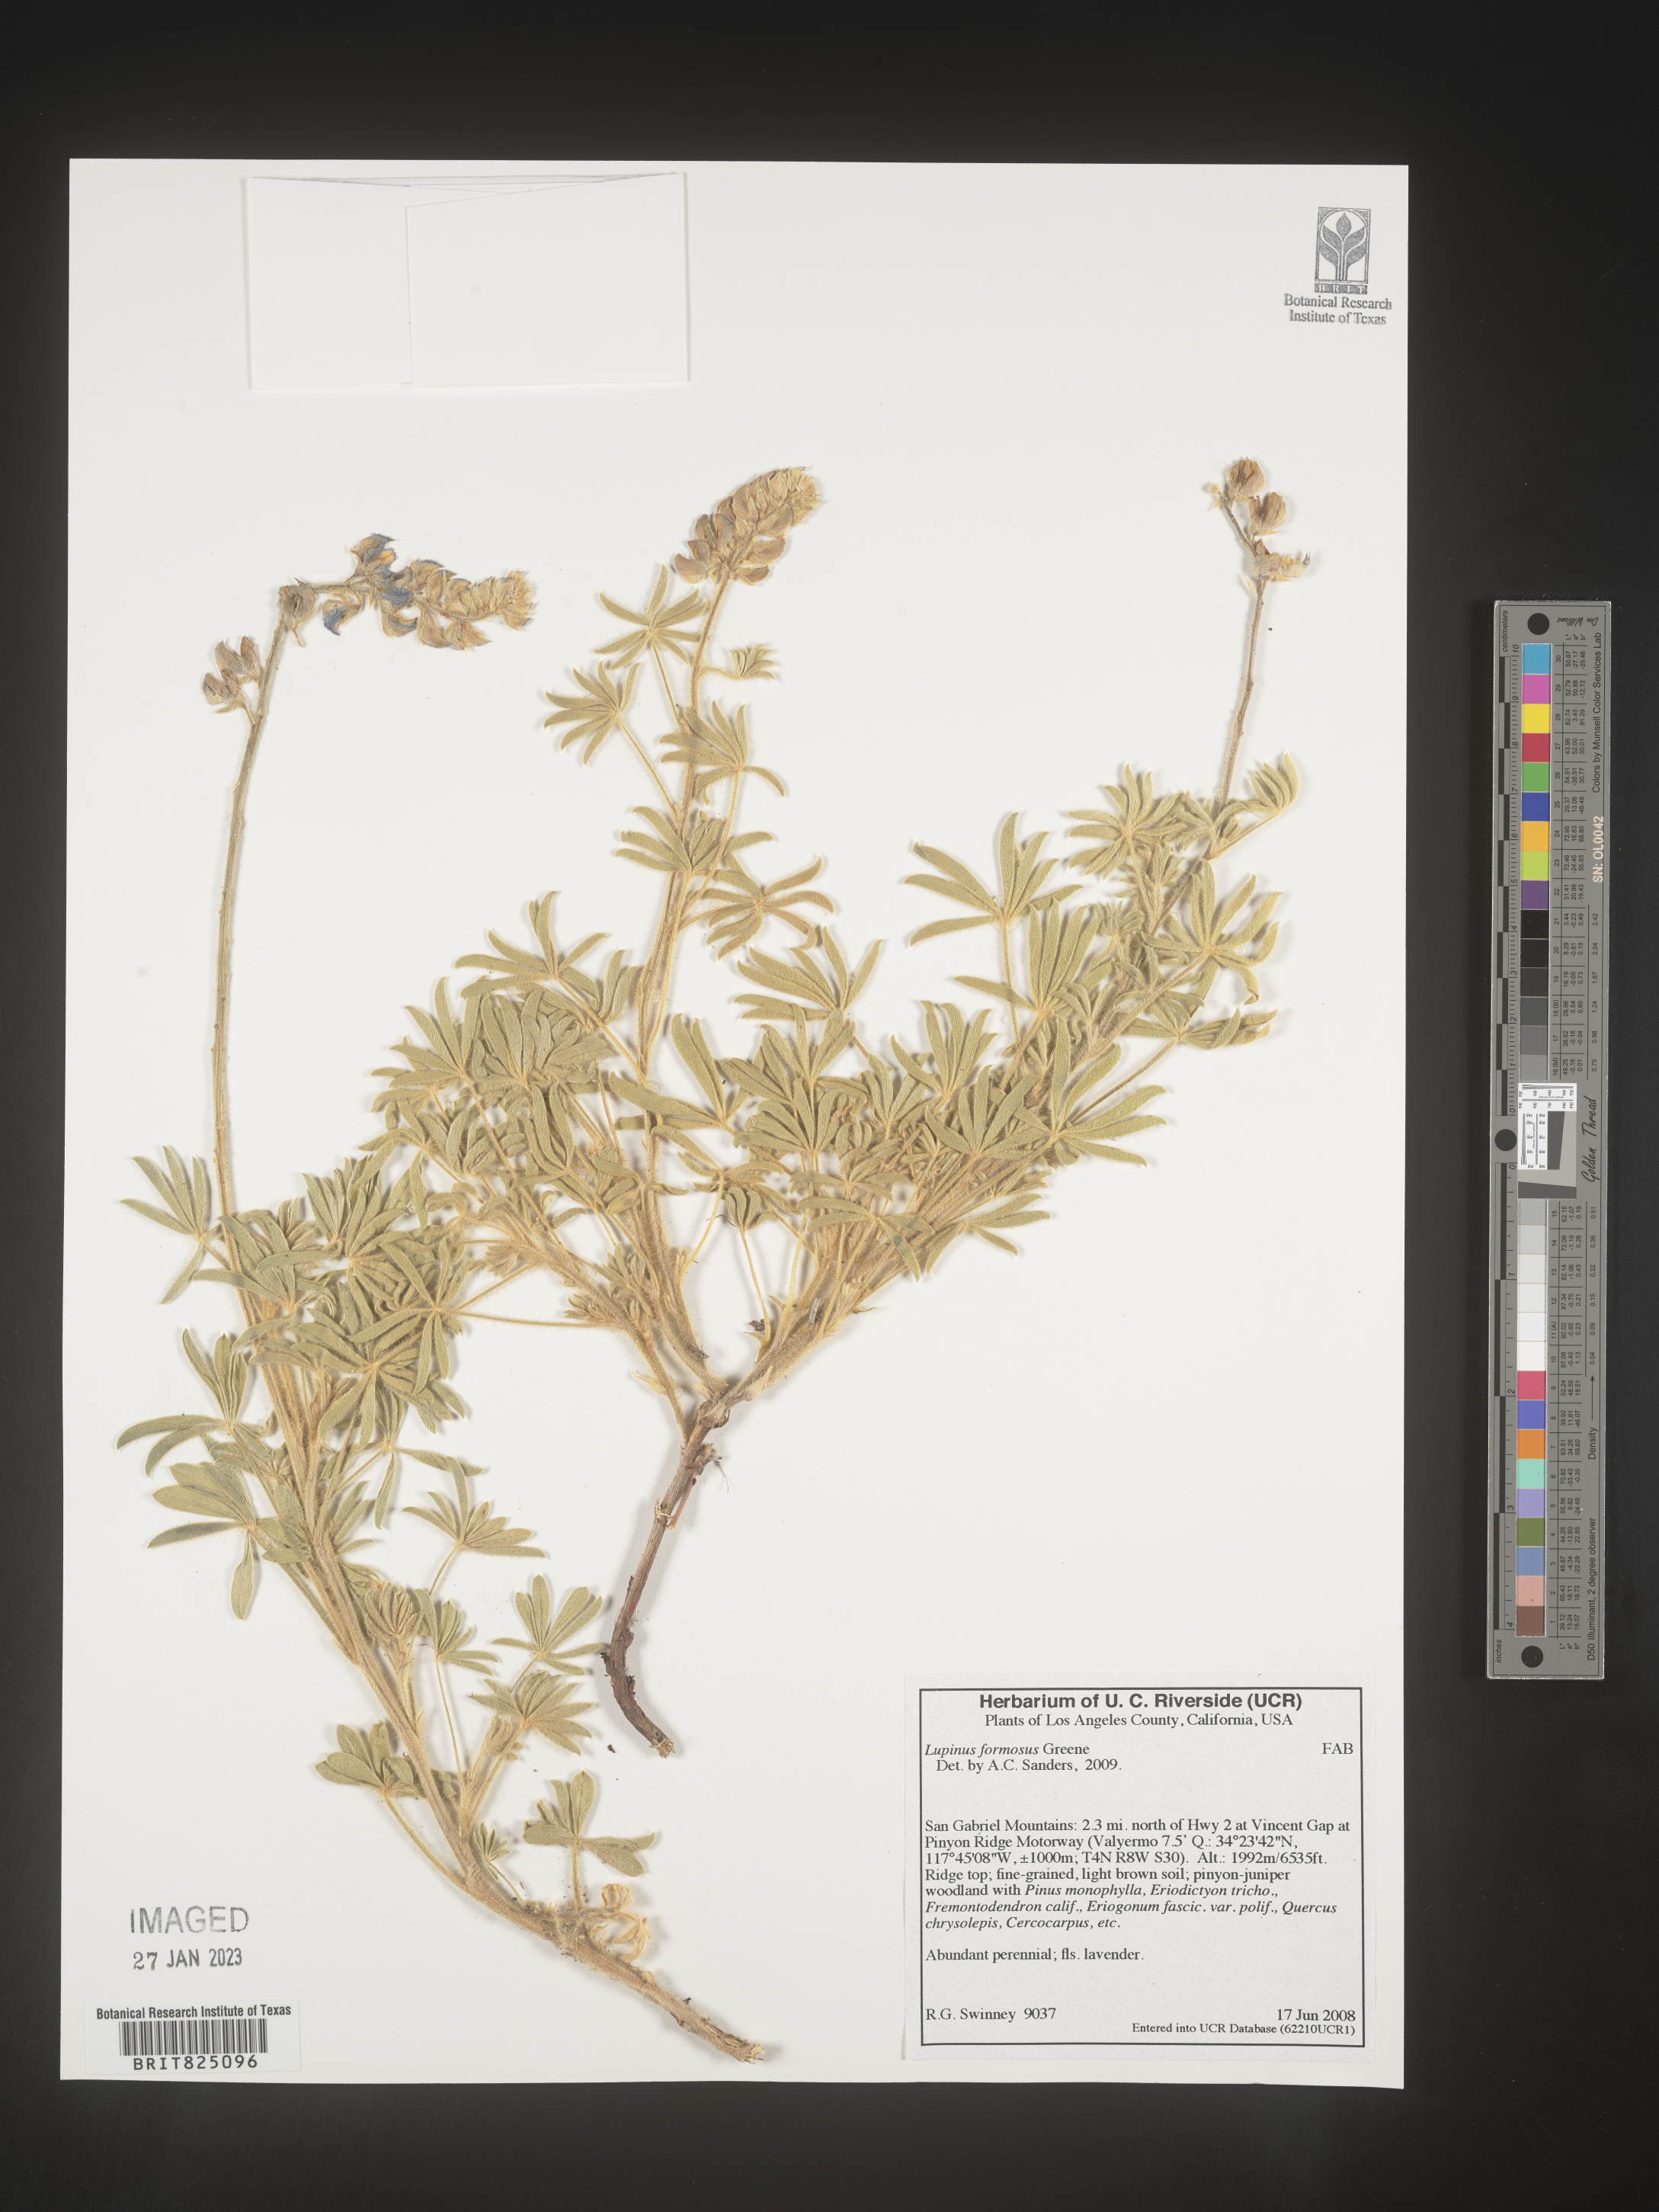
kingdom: Plantae
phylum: Tracheophyta
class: Magnoliopsida
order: Fabales
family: Fabaceae
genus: Lupinus
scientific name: Lupinus
